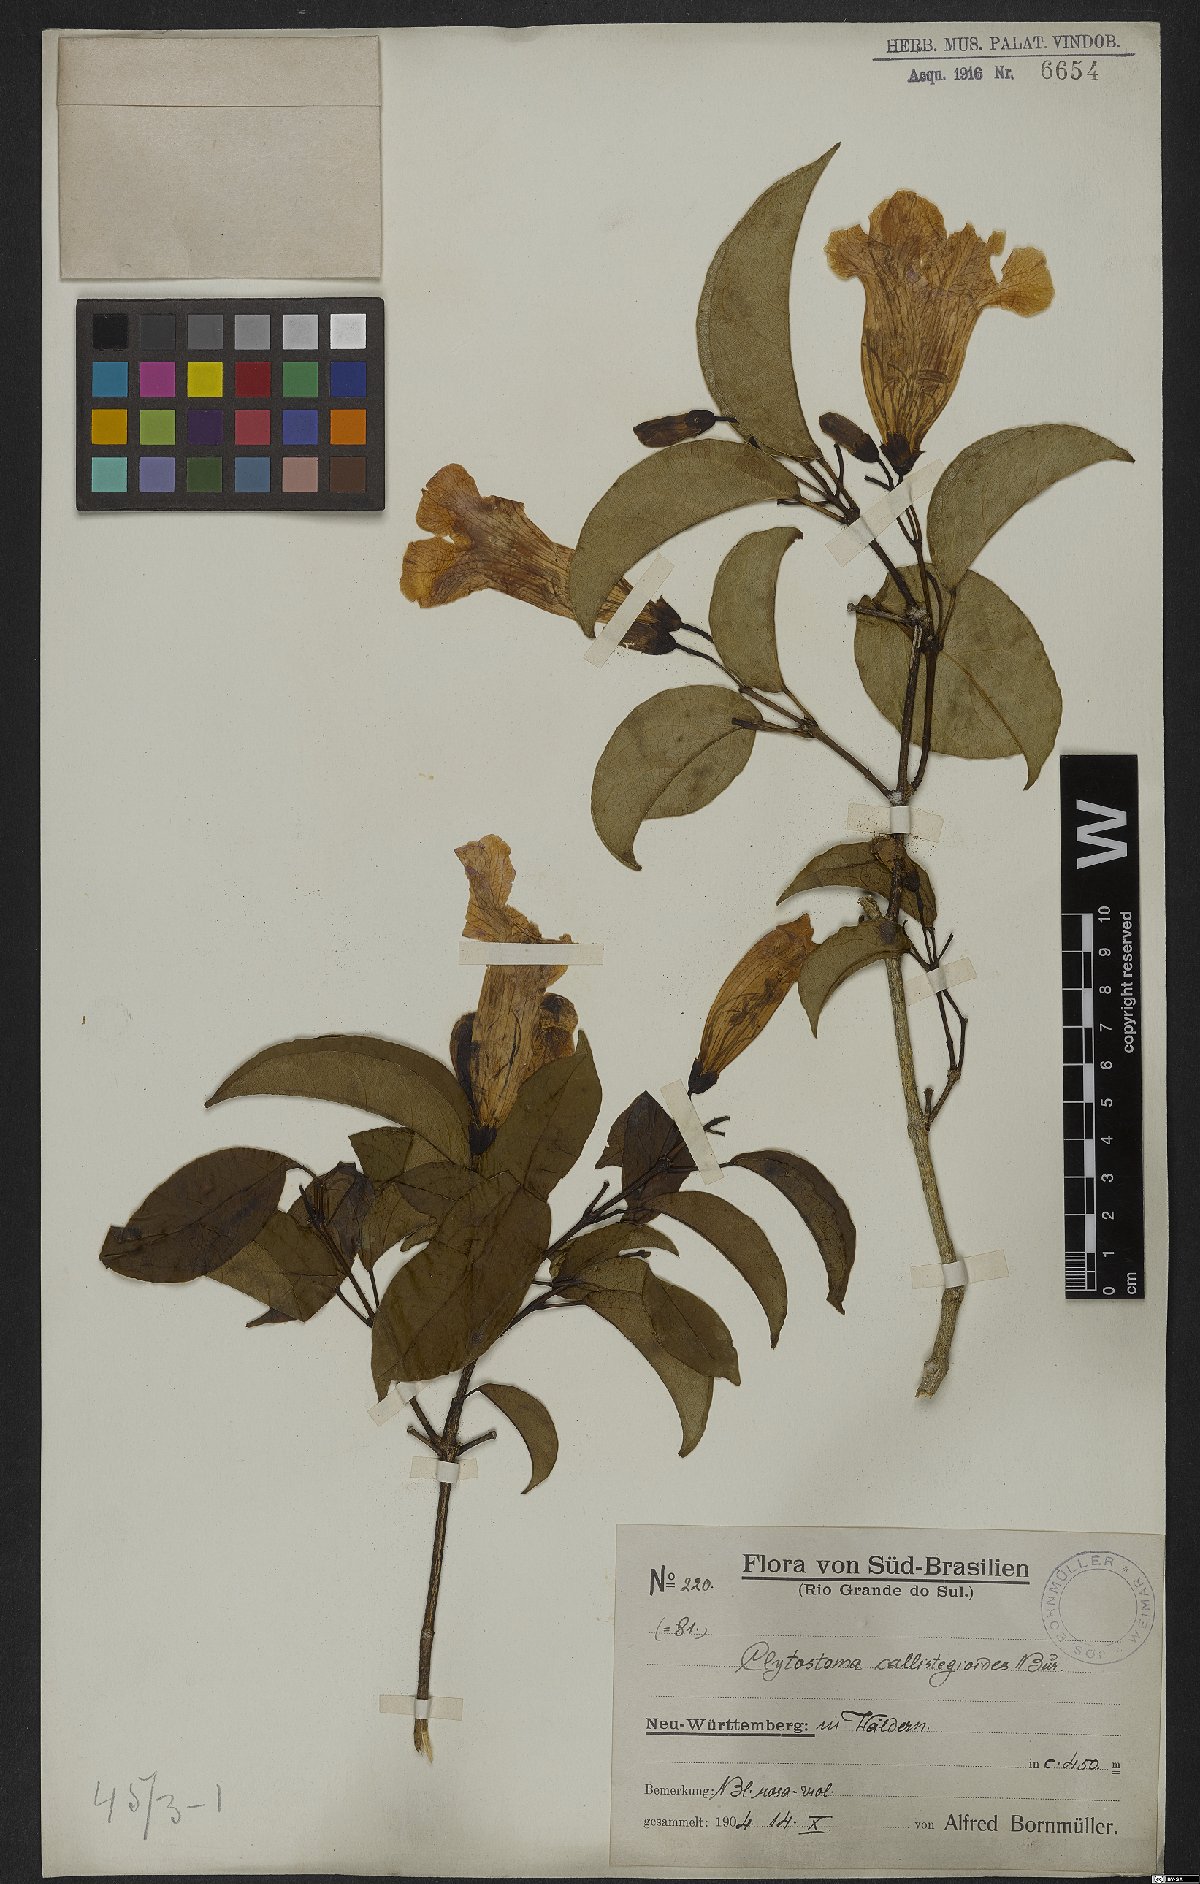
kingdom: Plantae
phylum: Tracheophyta
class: Magnoliopsida
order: Lamiales
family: Bignoniaceae
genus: Bignonia
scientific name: Bignonia callistegioides
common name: Argentine trumpetvine
